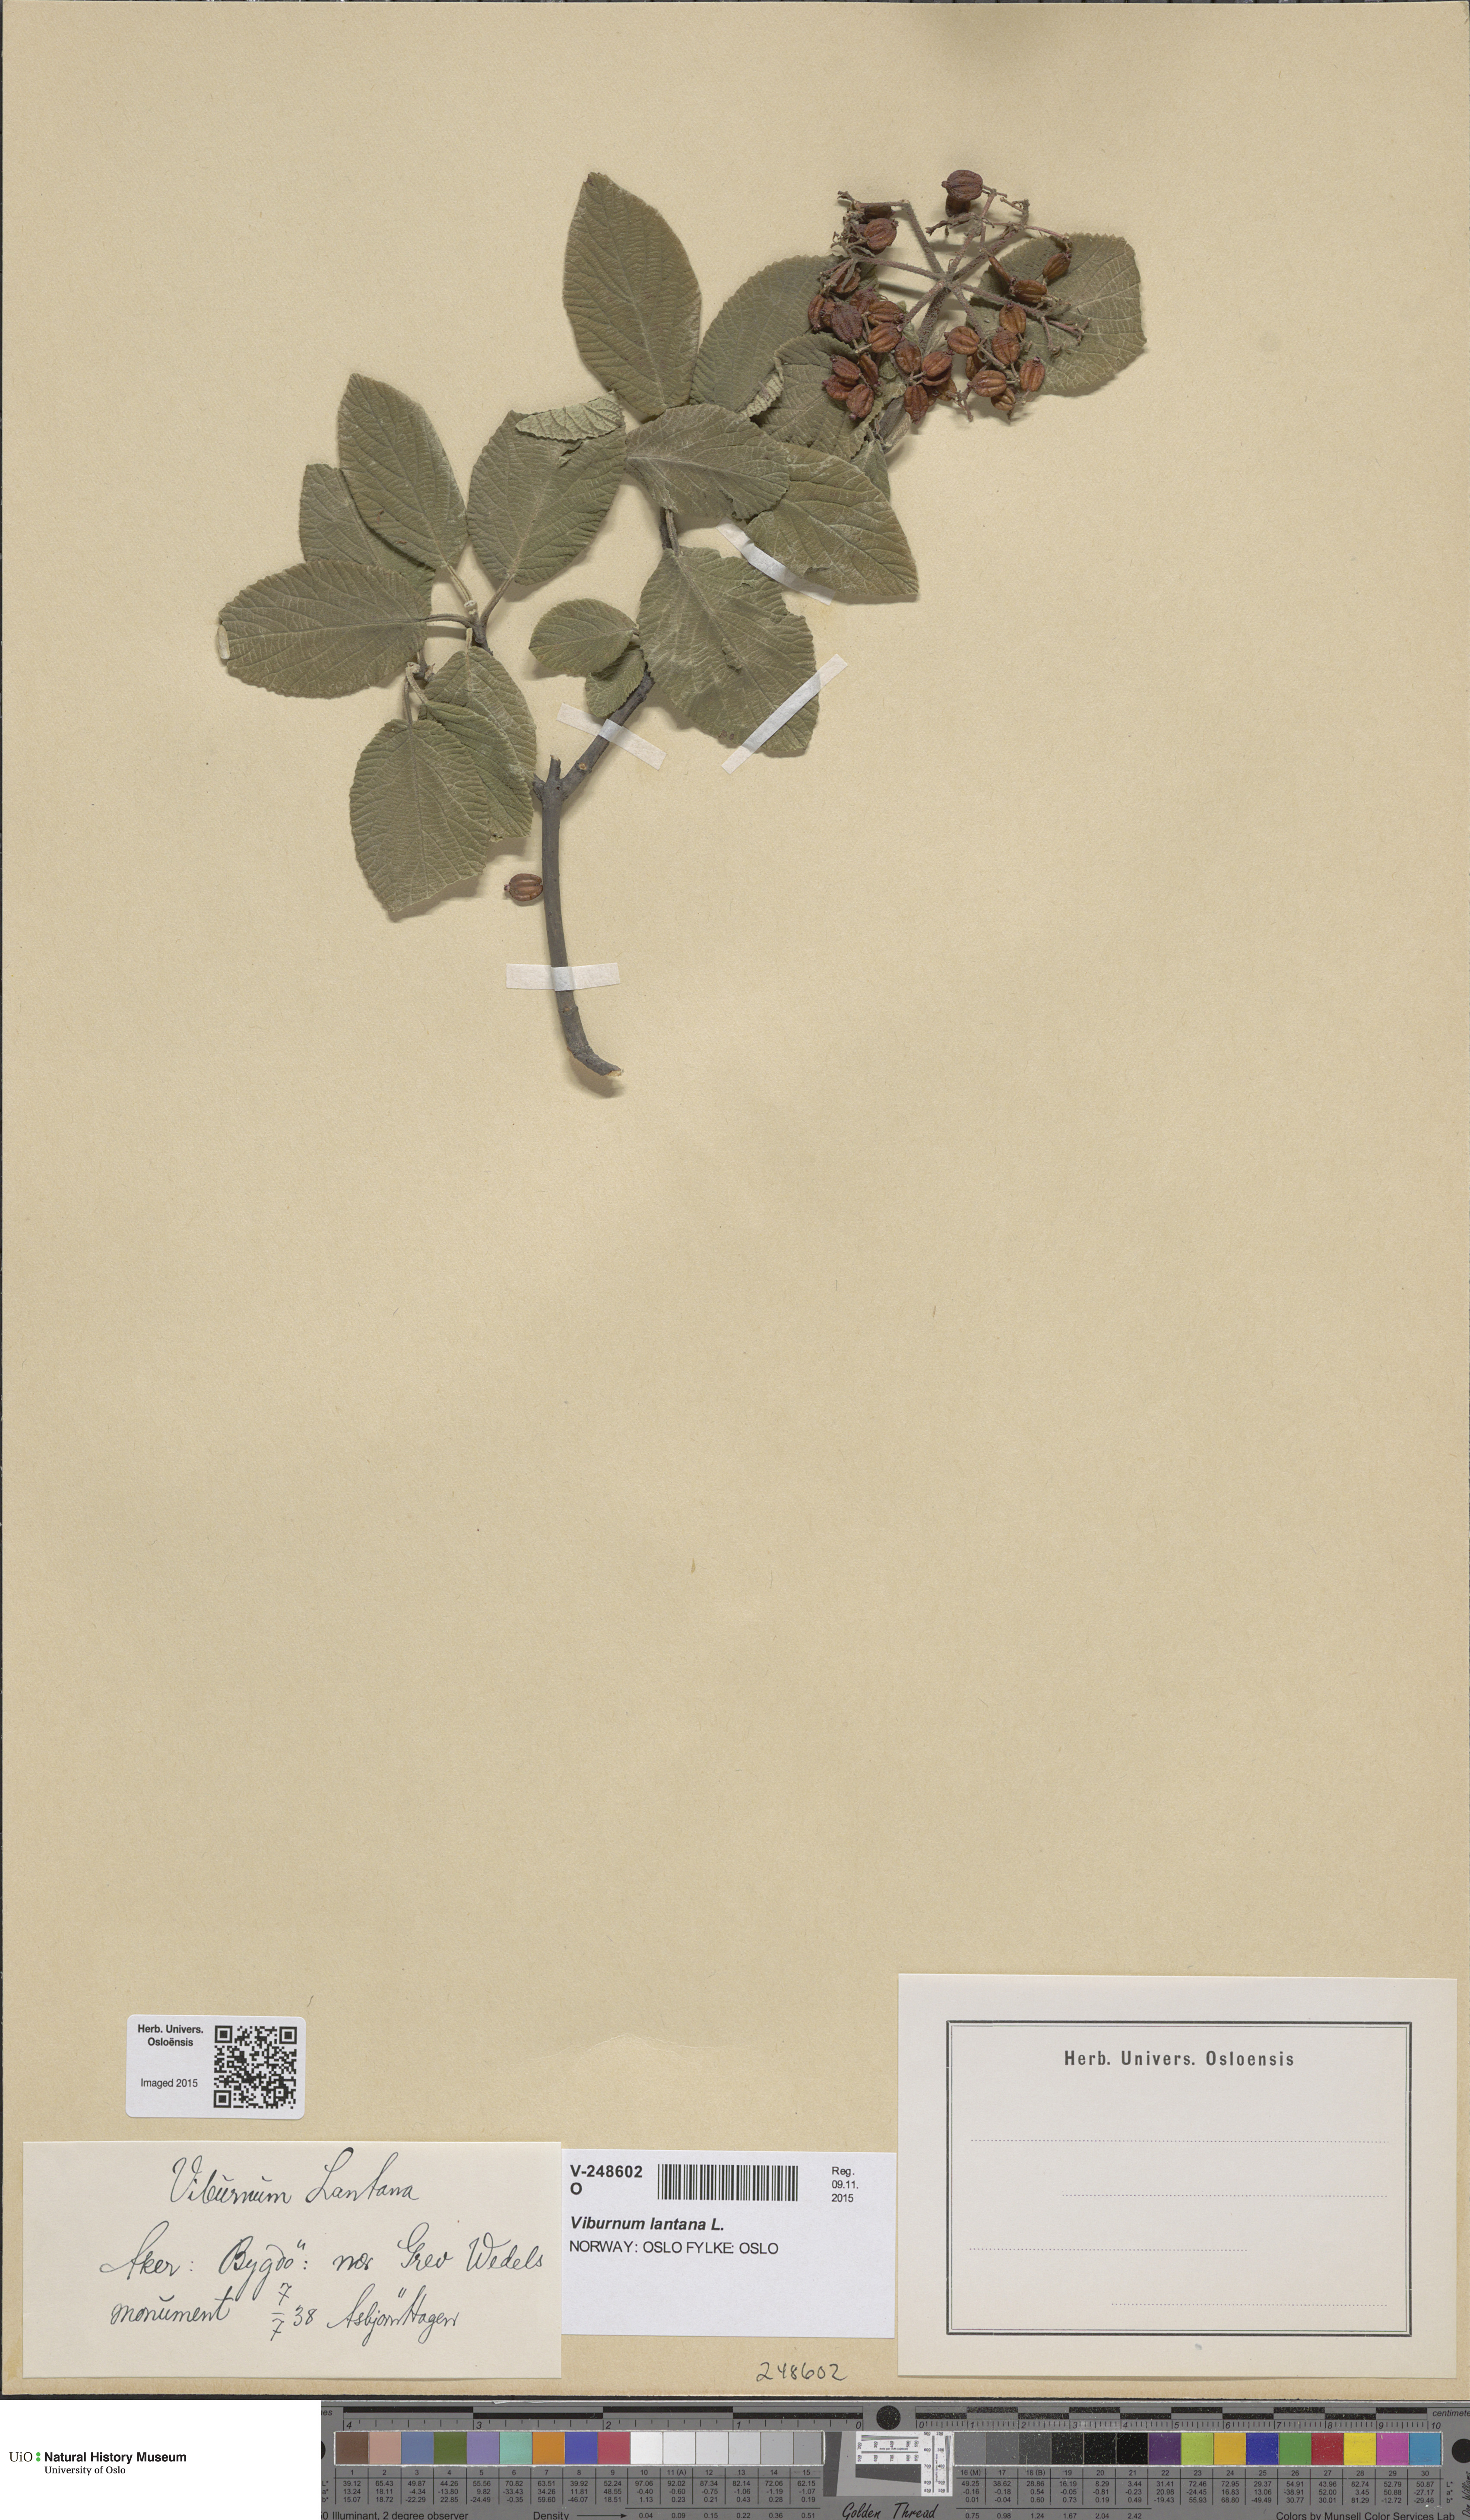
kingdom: Plantae
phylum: Tracheophyta
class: Magnoliopsida
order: Dipsacales
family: Viburnaceae
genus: Viburnum
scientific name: Viburnum lantana
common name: Wayfaring tree
